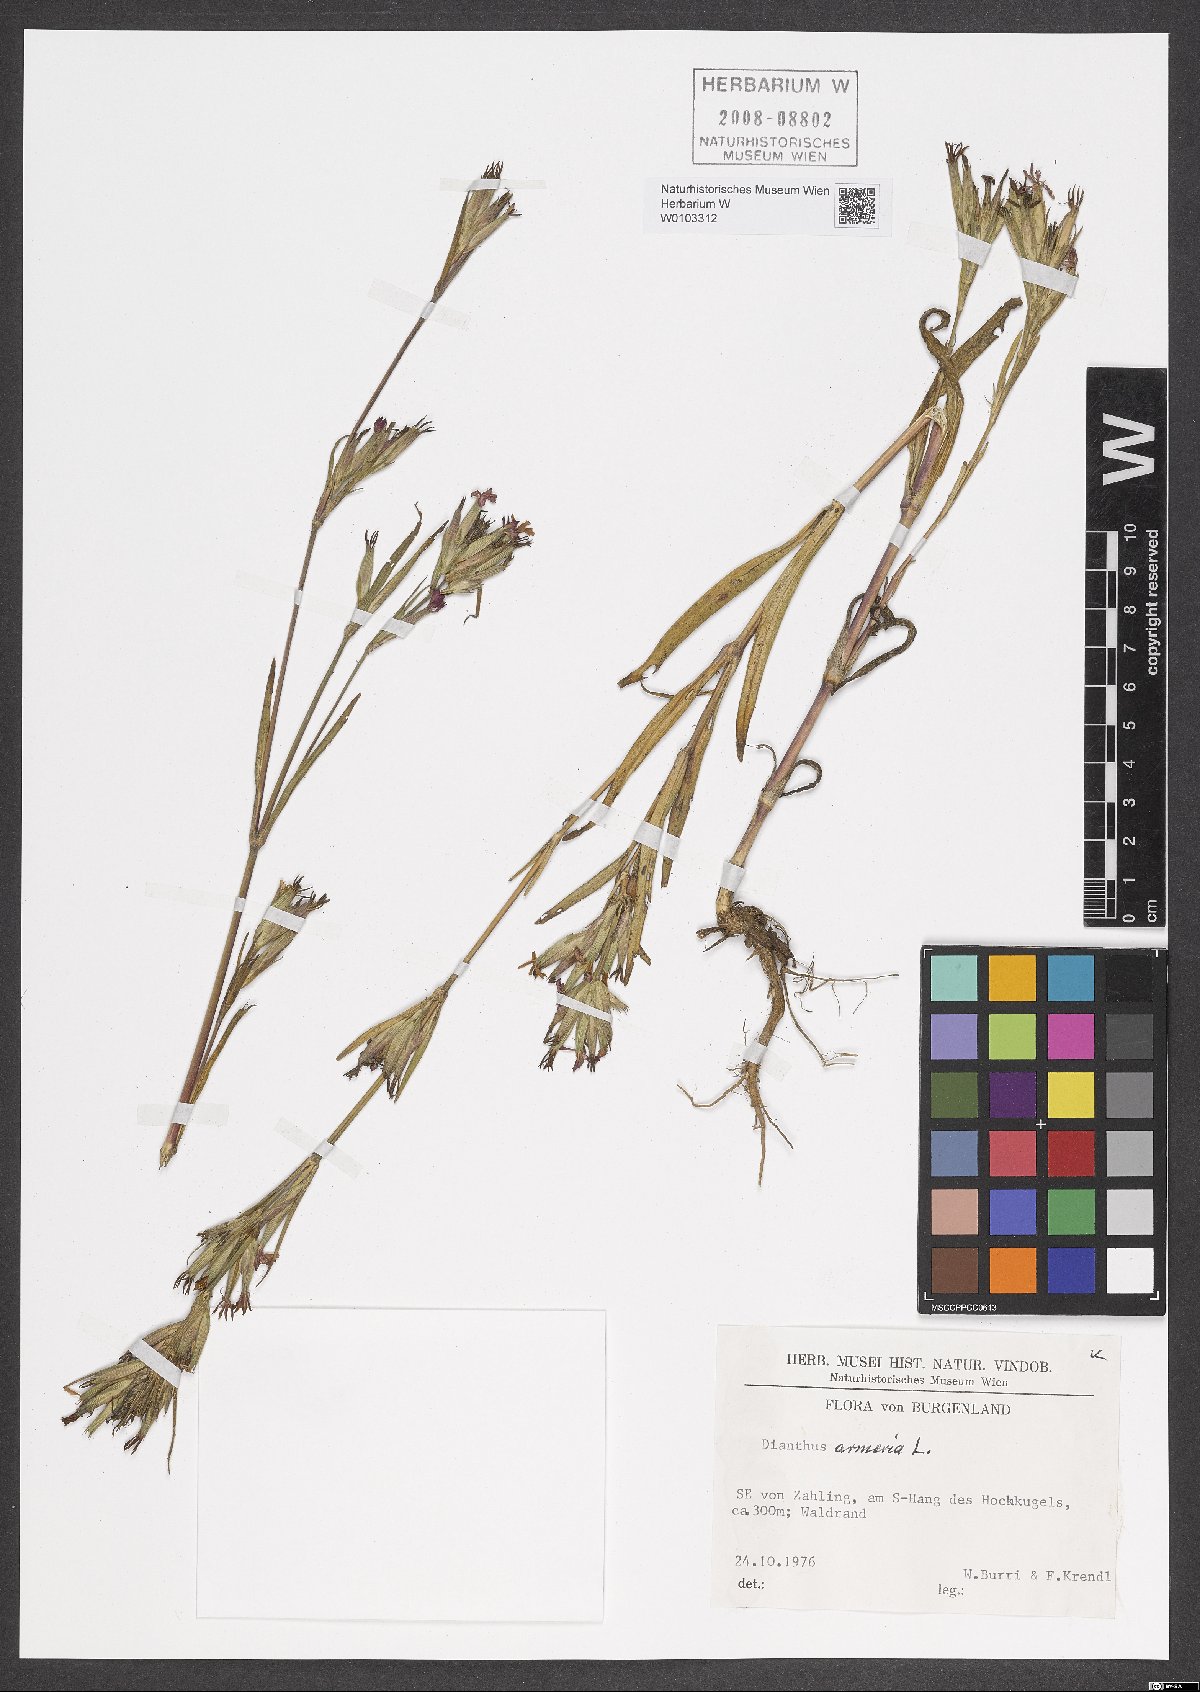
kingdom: Plantae
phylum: Tracheophyta
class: Magnoliopsida
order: Caryophyllales
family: Caryophyllaceae
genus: Dianthus
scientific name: Dianthus armeria
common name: Deptford pink
